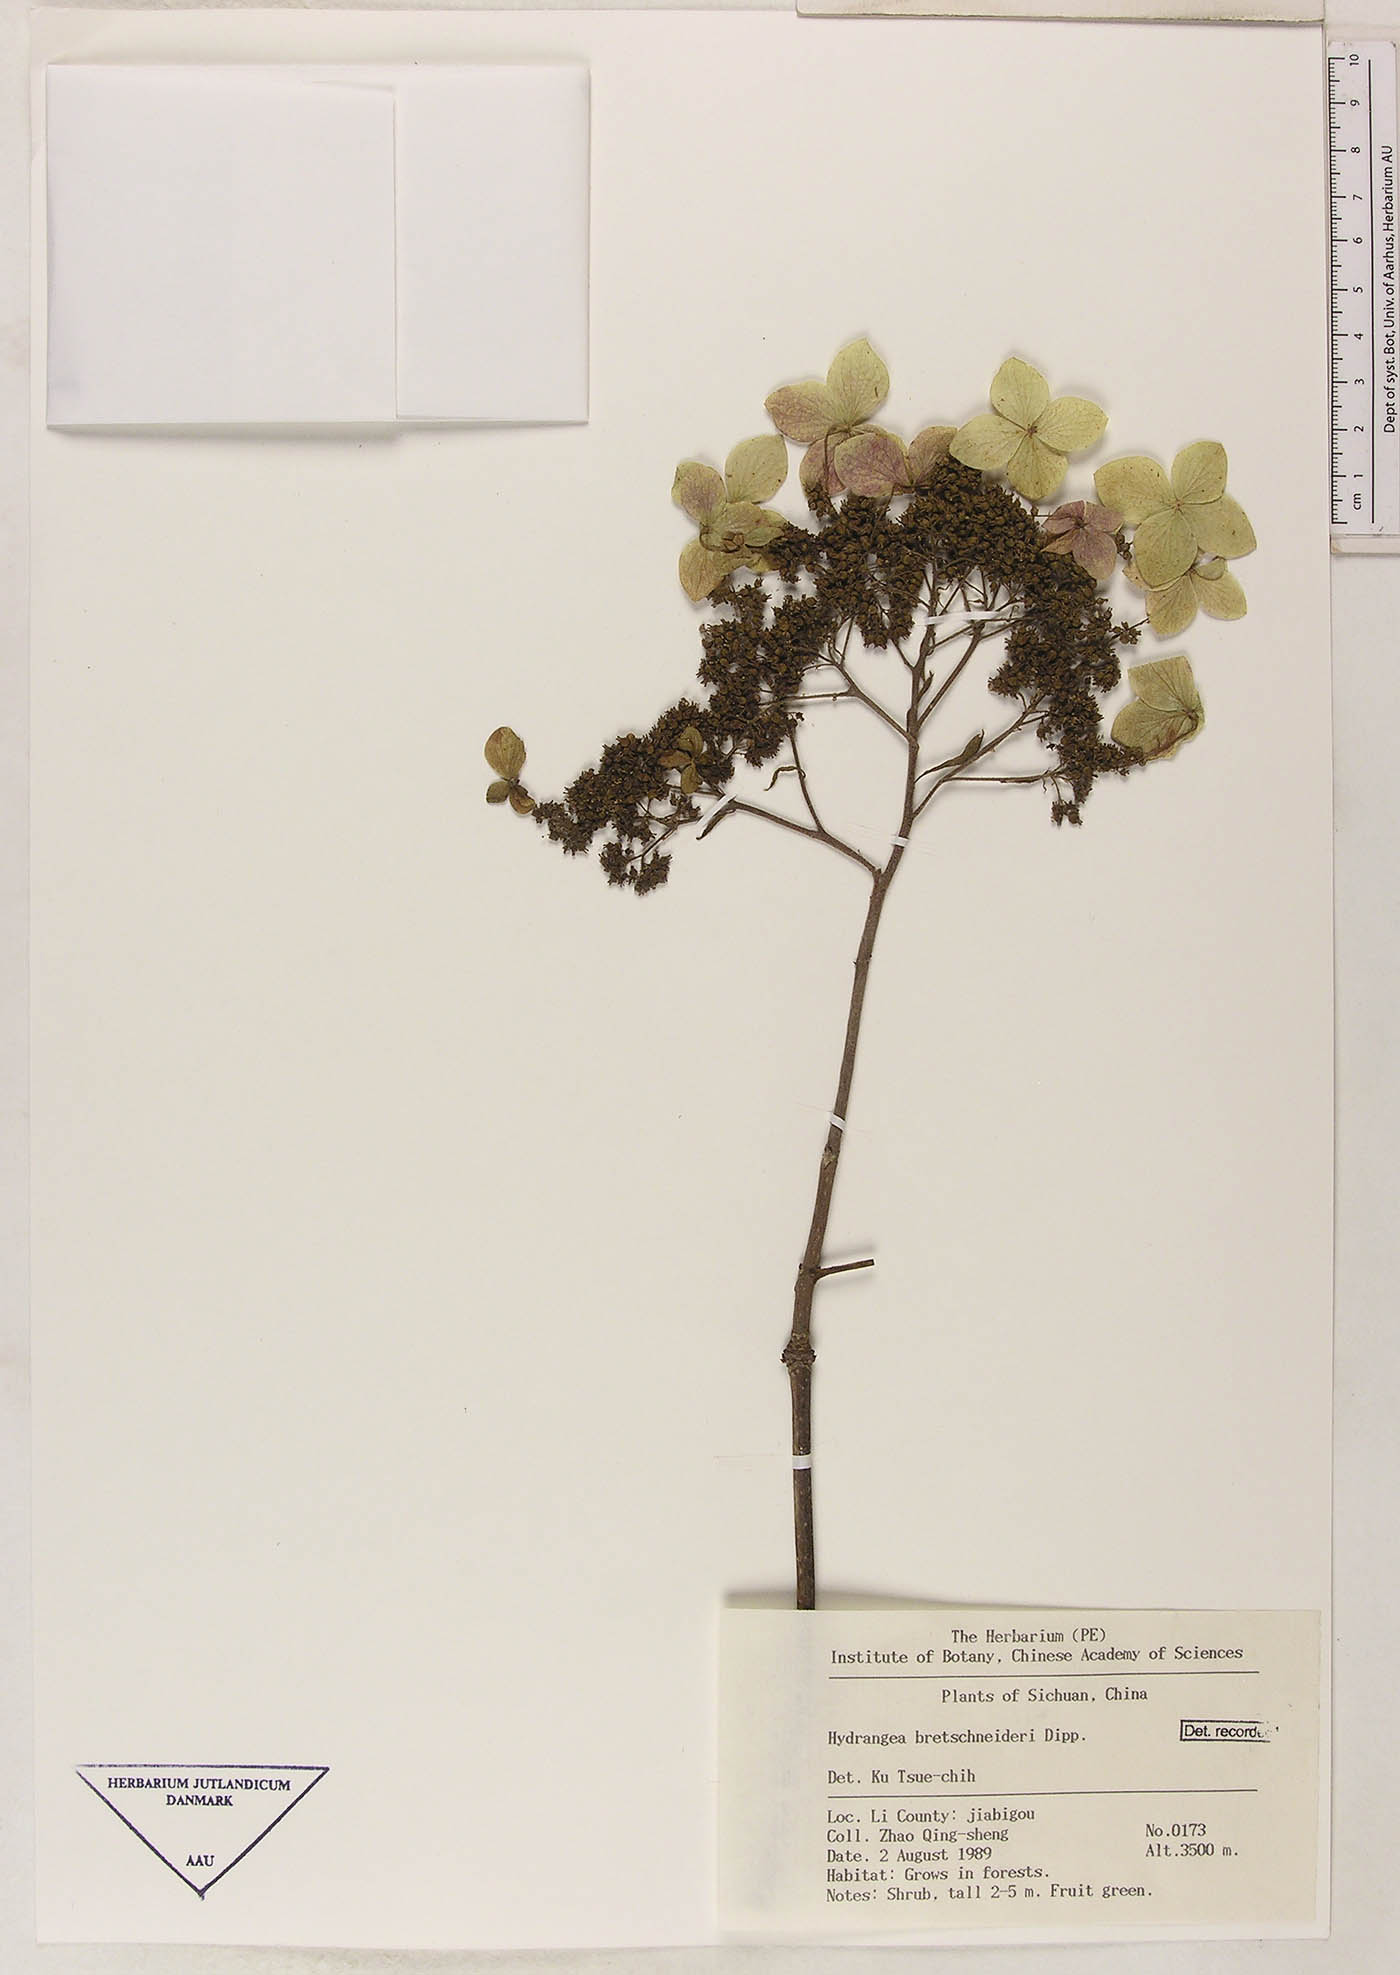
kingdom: Plantae
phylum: Tracheophyta
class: Magnoliopsida
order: Cornales
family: Hydrangeaceae
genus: Hydrangea
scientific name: Hydrangea bretschneideri
